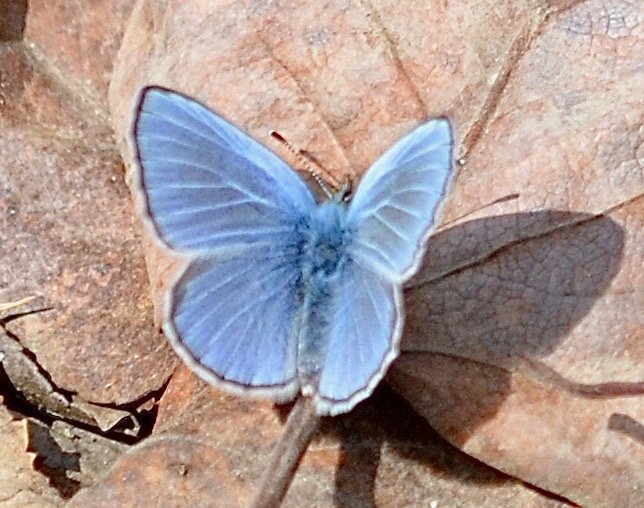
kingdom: Animalia
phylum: Arthropoda
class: Insecta
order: Lepidoptera
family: Lycaenidae
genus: Glaucopsyche
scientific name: Glaucopsyche lygdamus
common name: Silvery Blue
